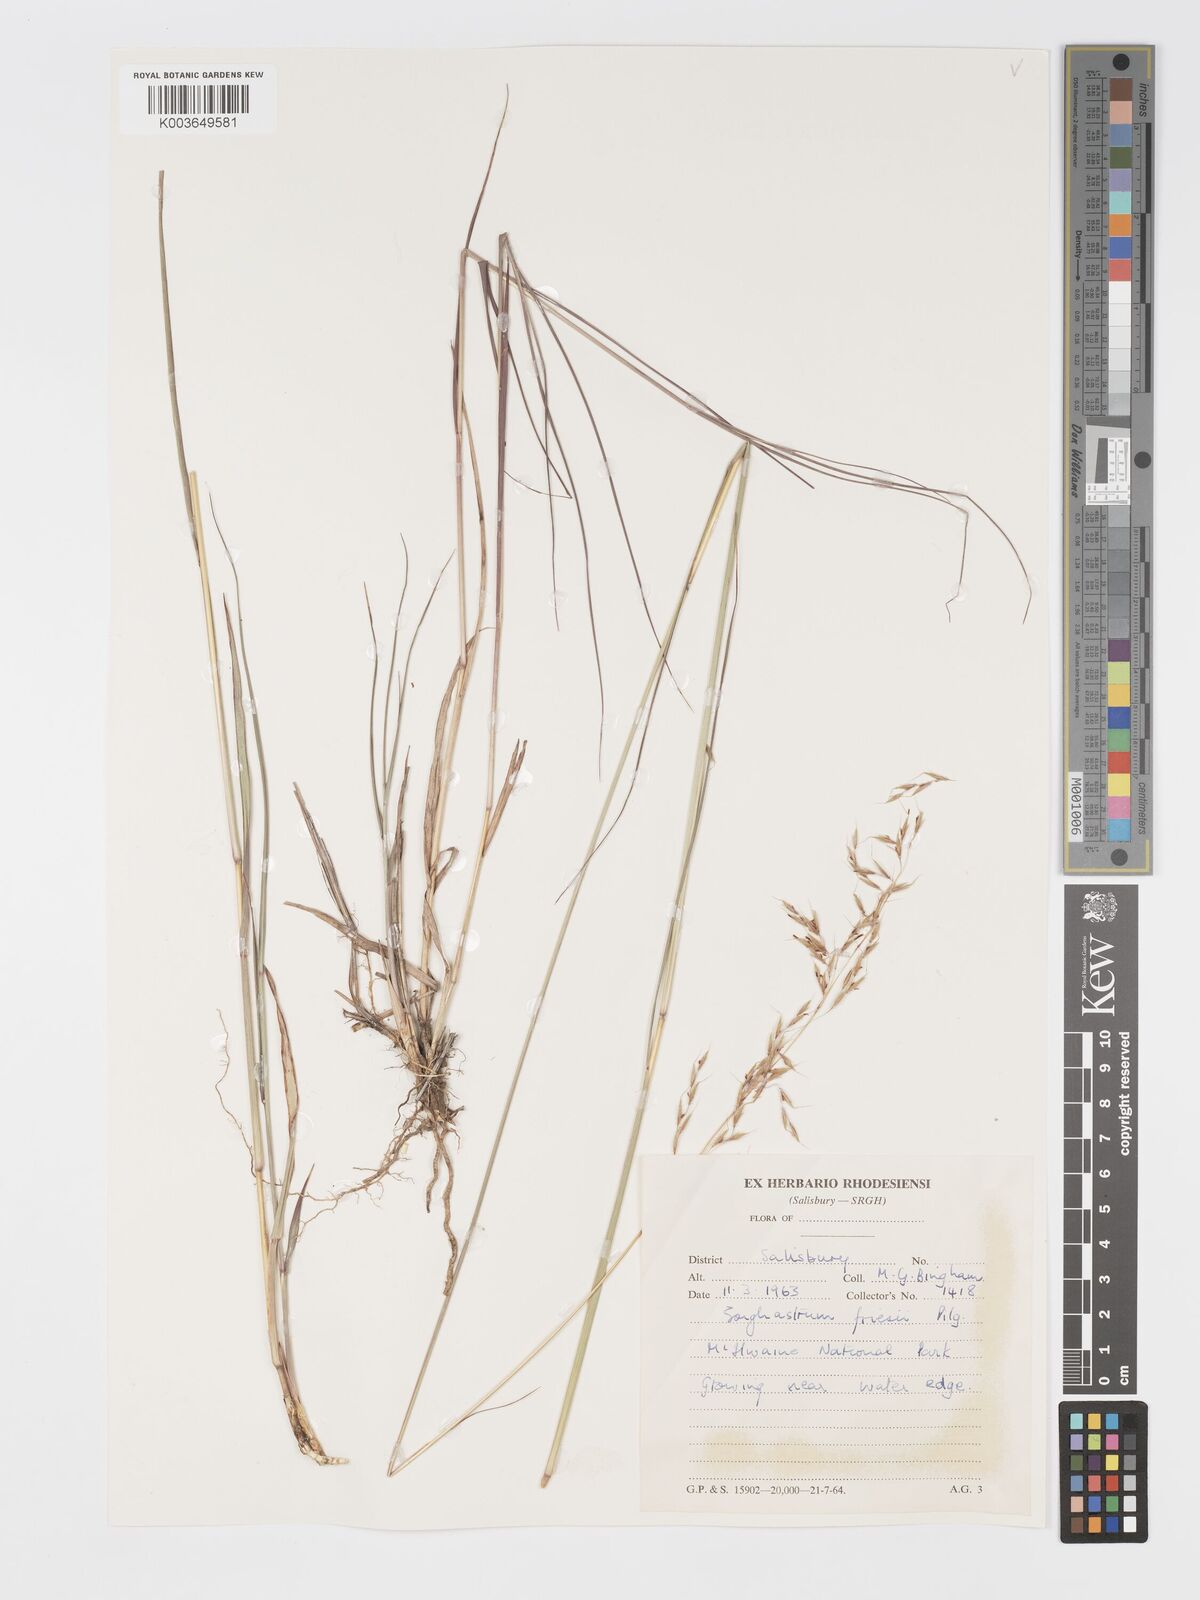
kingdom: Plantae
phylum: Tracheophyta
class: Liliopsida
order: Poales
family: Poaceae
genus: Sorghastrum
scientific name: Sorghastrum nudipes
